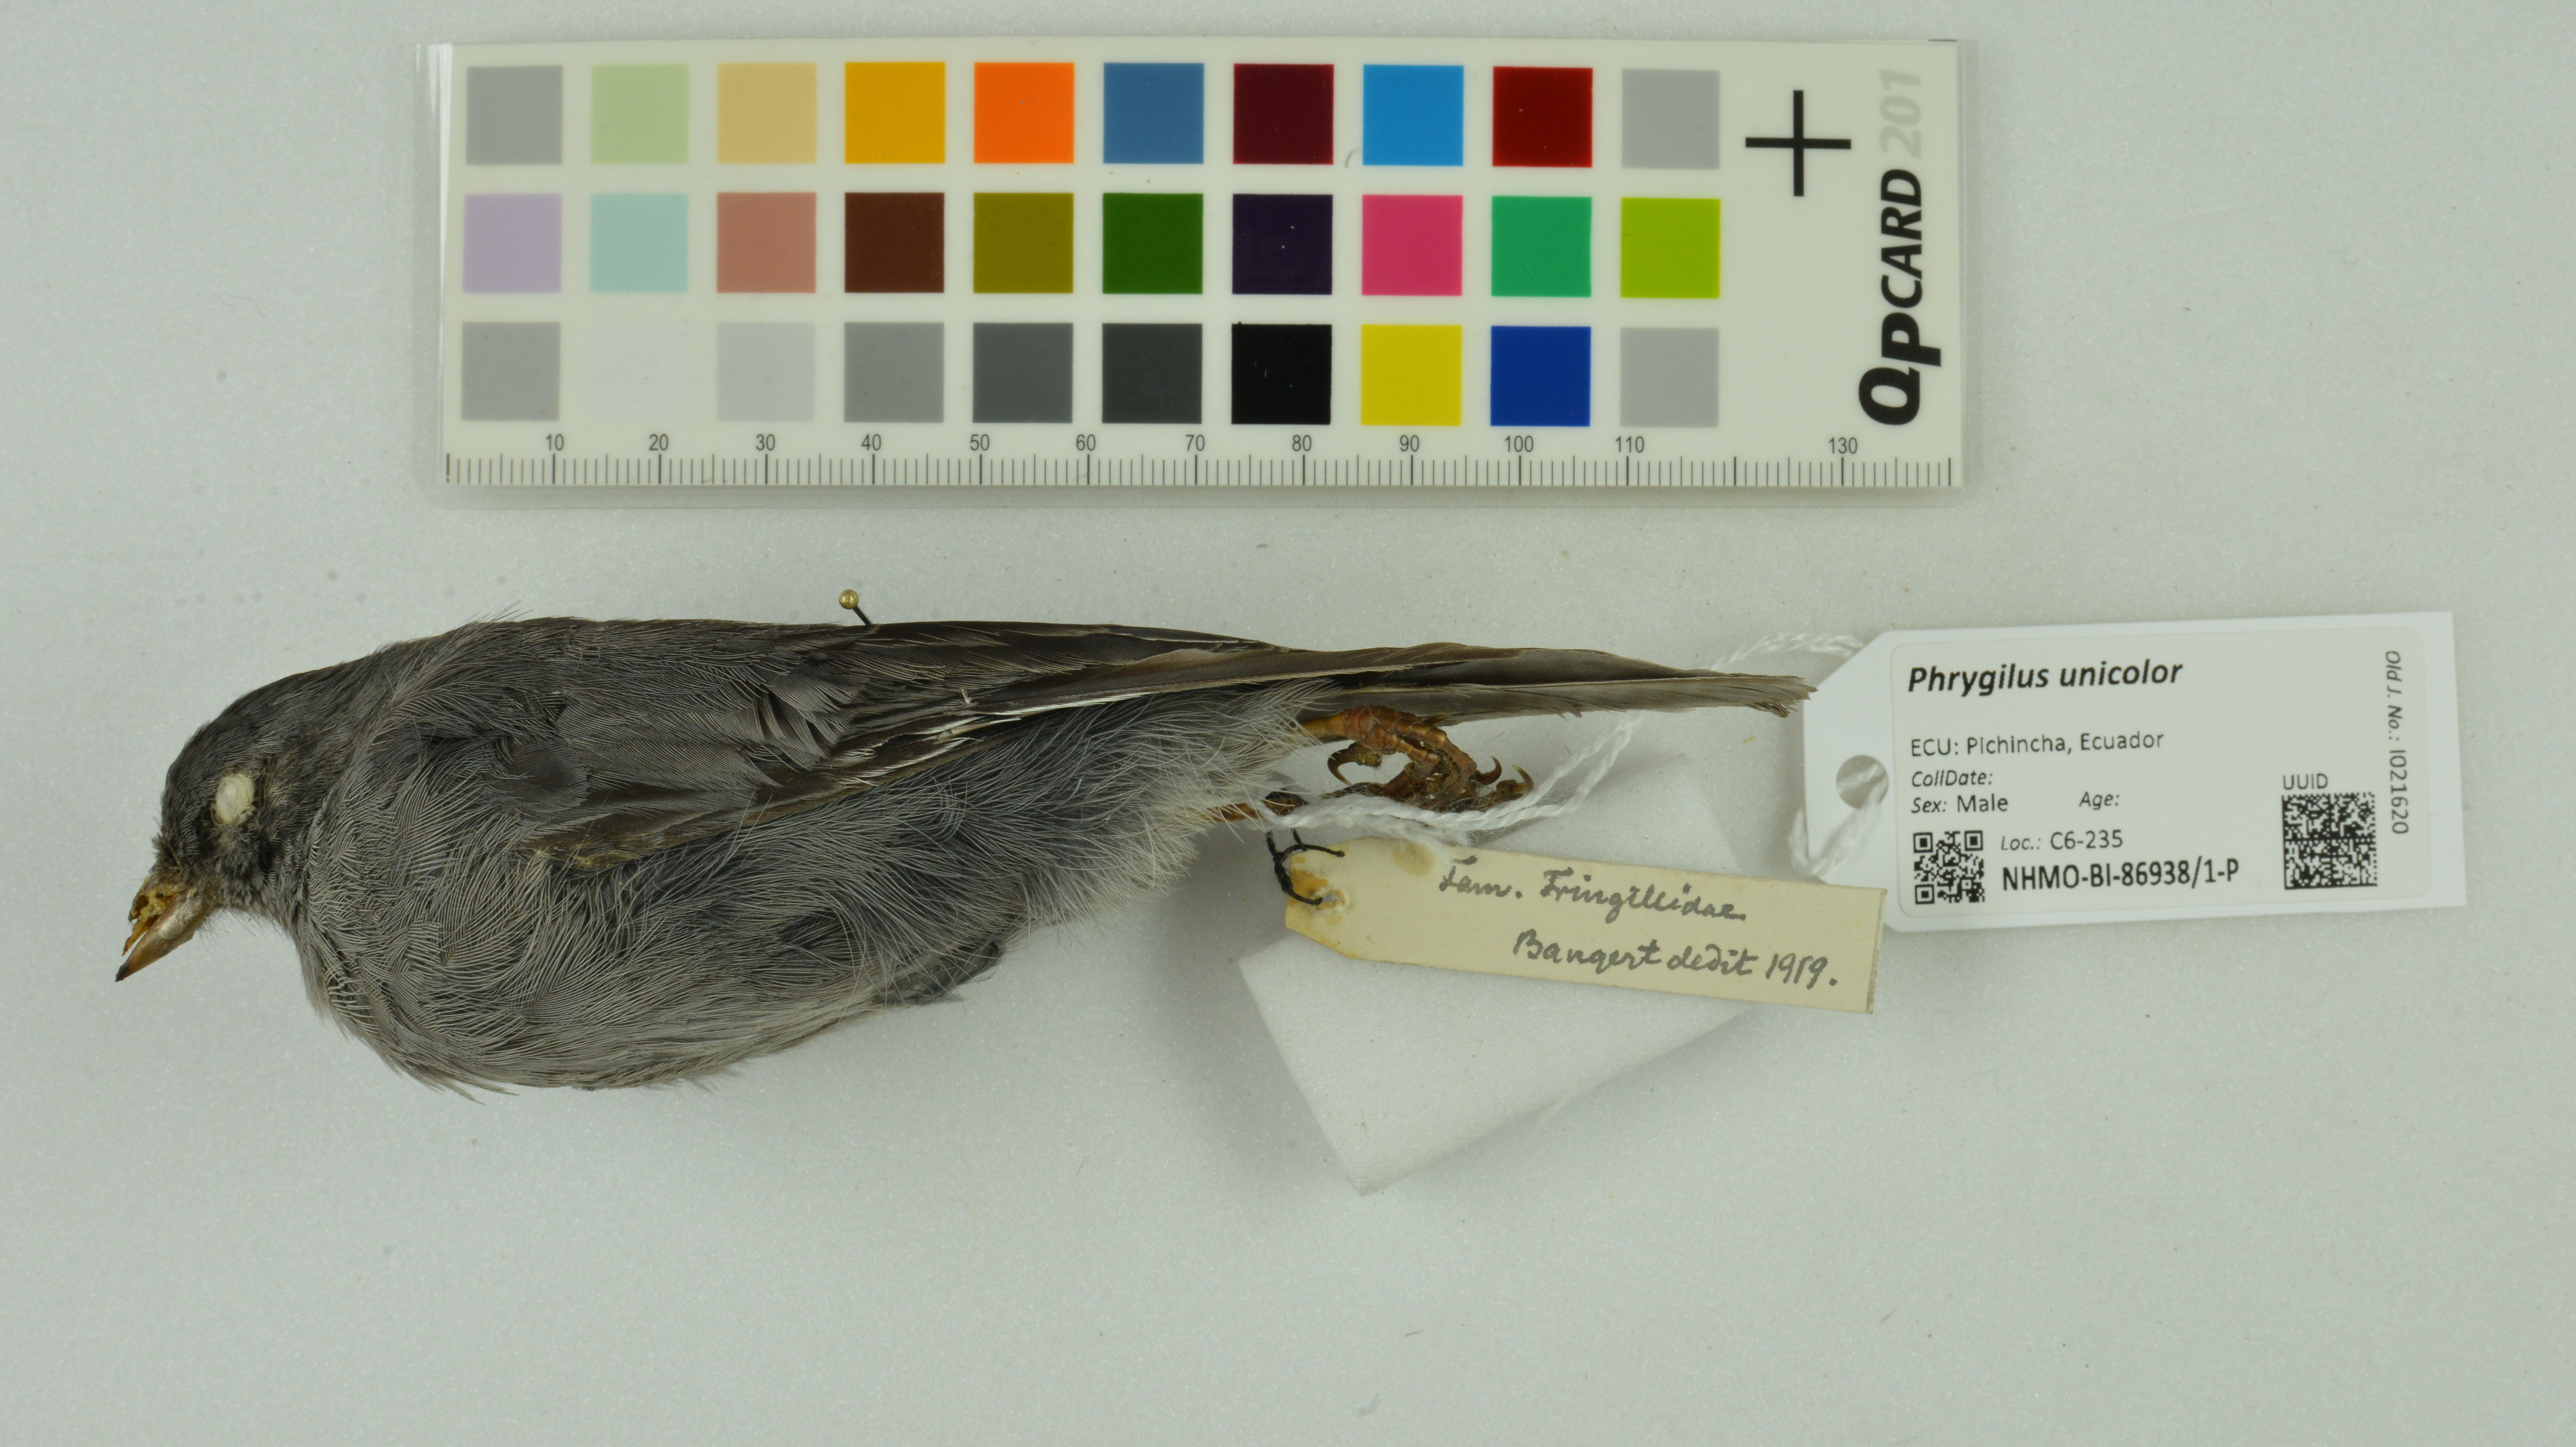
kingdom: Animalia
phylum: Chordata
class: Aves
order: Passeriformes
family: Thraupidae
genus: Geospizopsis
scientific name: Geospizopsis unicolor
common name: Plumbeous sierra-finch
